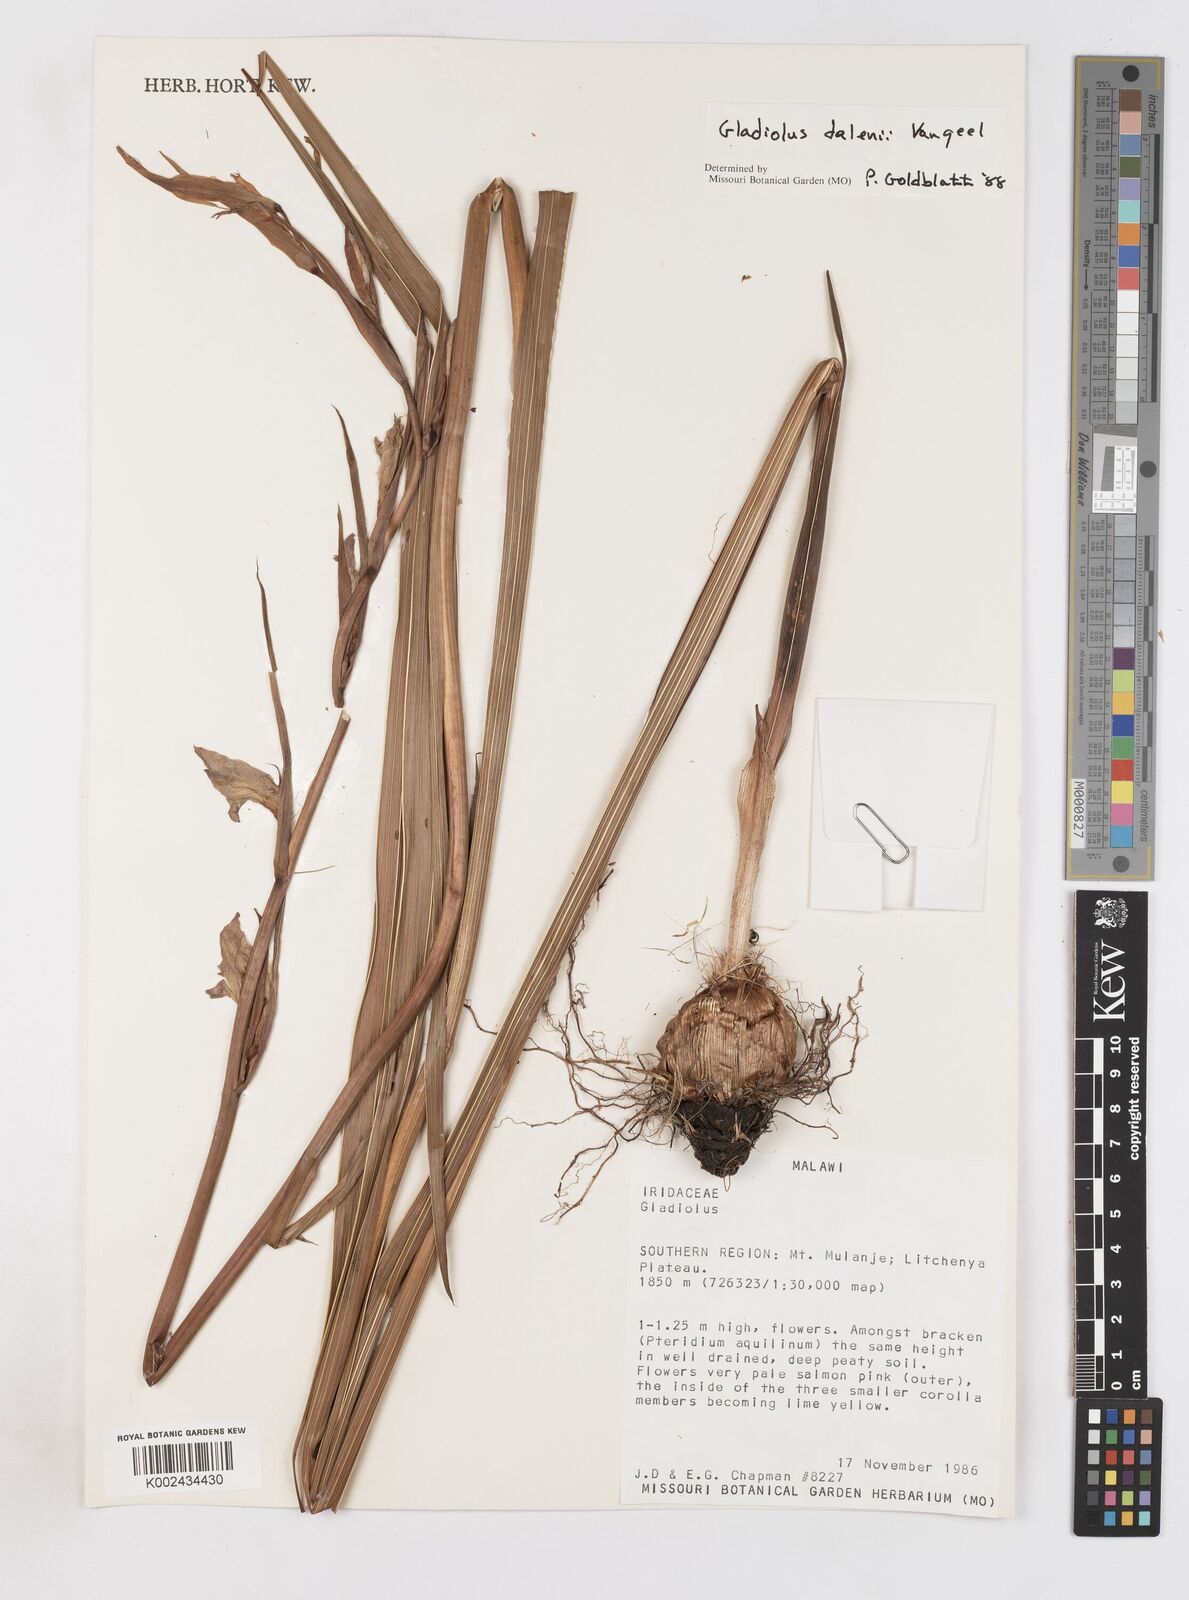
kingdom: Plantae
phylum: Tracheophyta
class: Liliopsida
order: Asparagales
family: Iridaceae
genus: Gladiolus
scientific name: Gladiolus dalenii
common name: Cornflag
